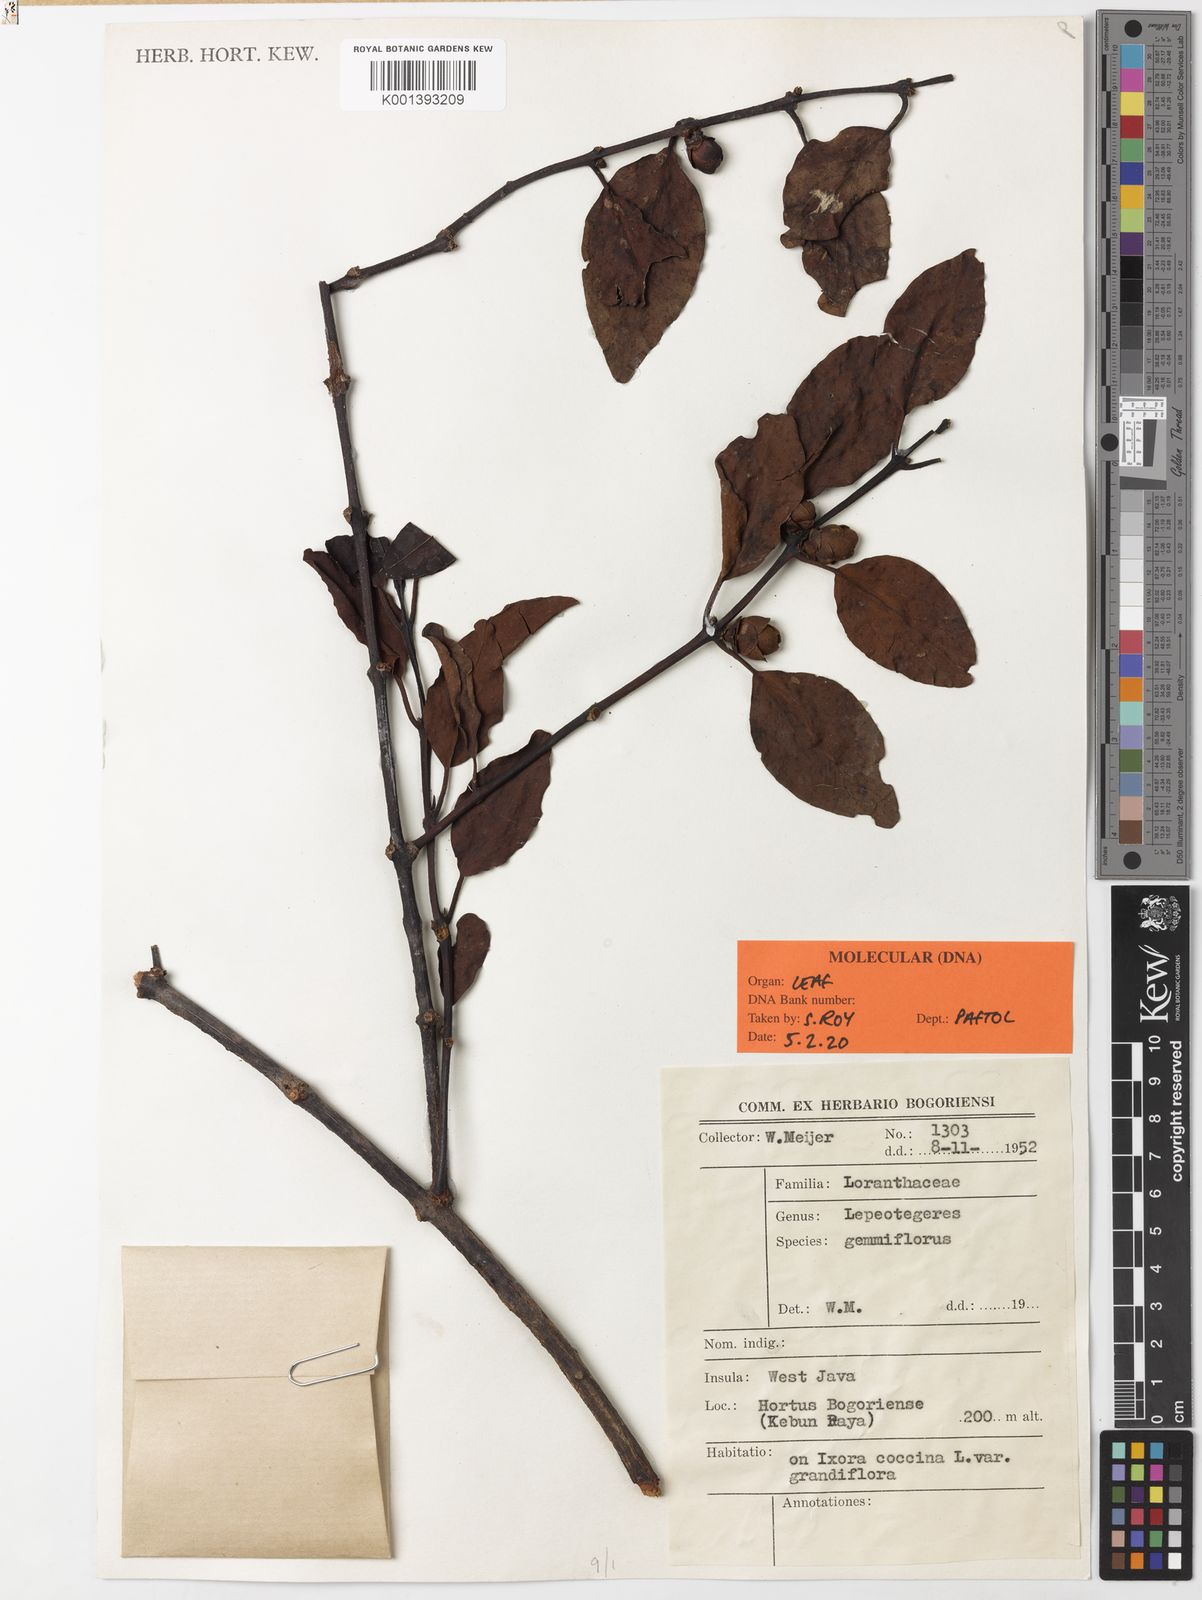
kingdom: Plantae
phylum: Tracheophyta
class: Magnoliopsida
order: Santalales
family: Loranthaceae
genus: Lepeostegeres
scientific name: Lepeostegeres gemmiflorus
